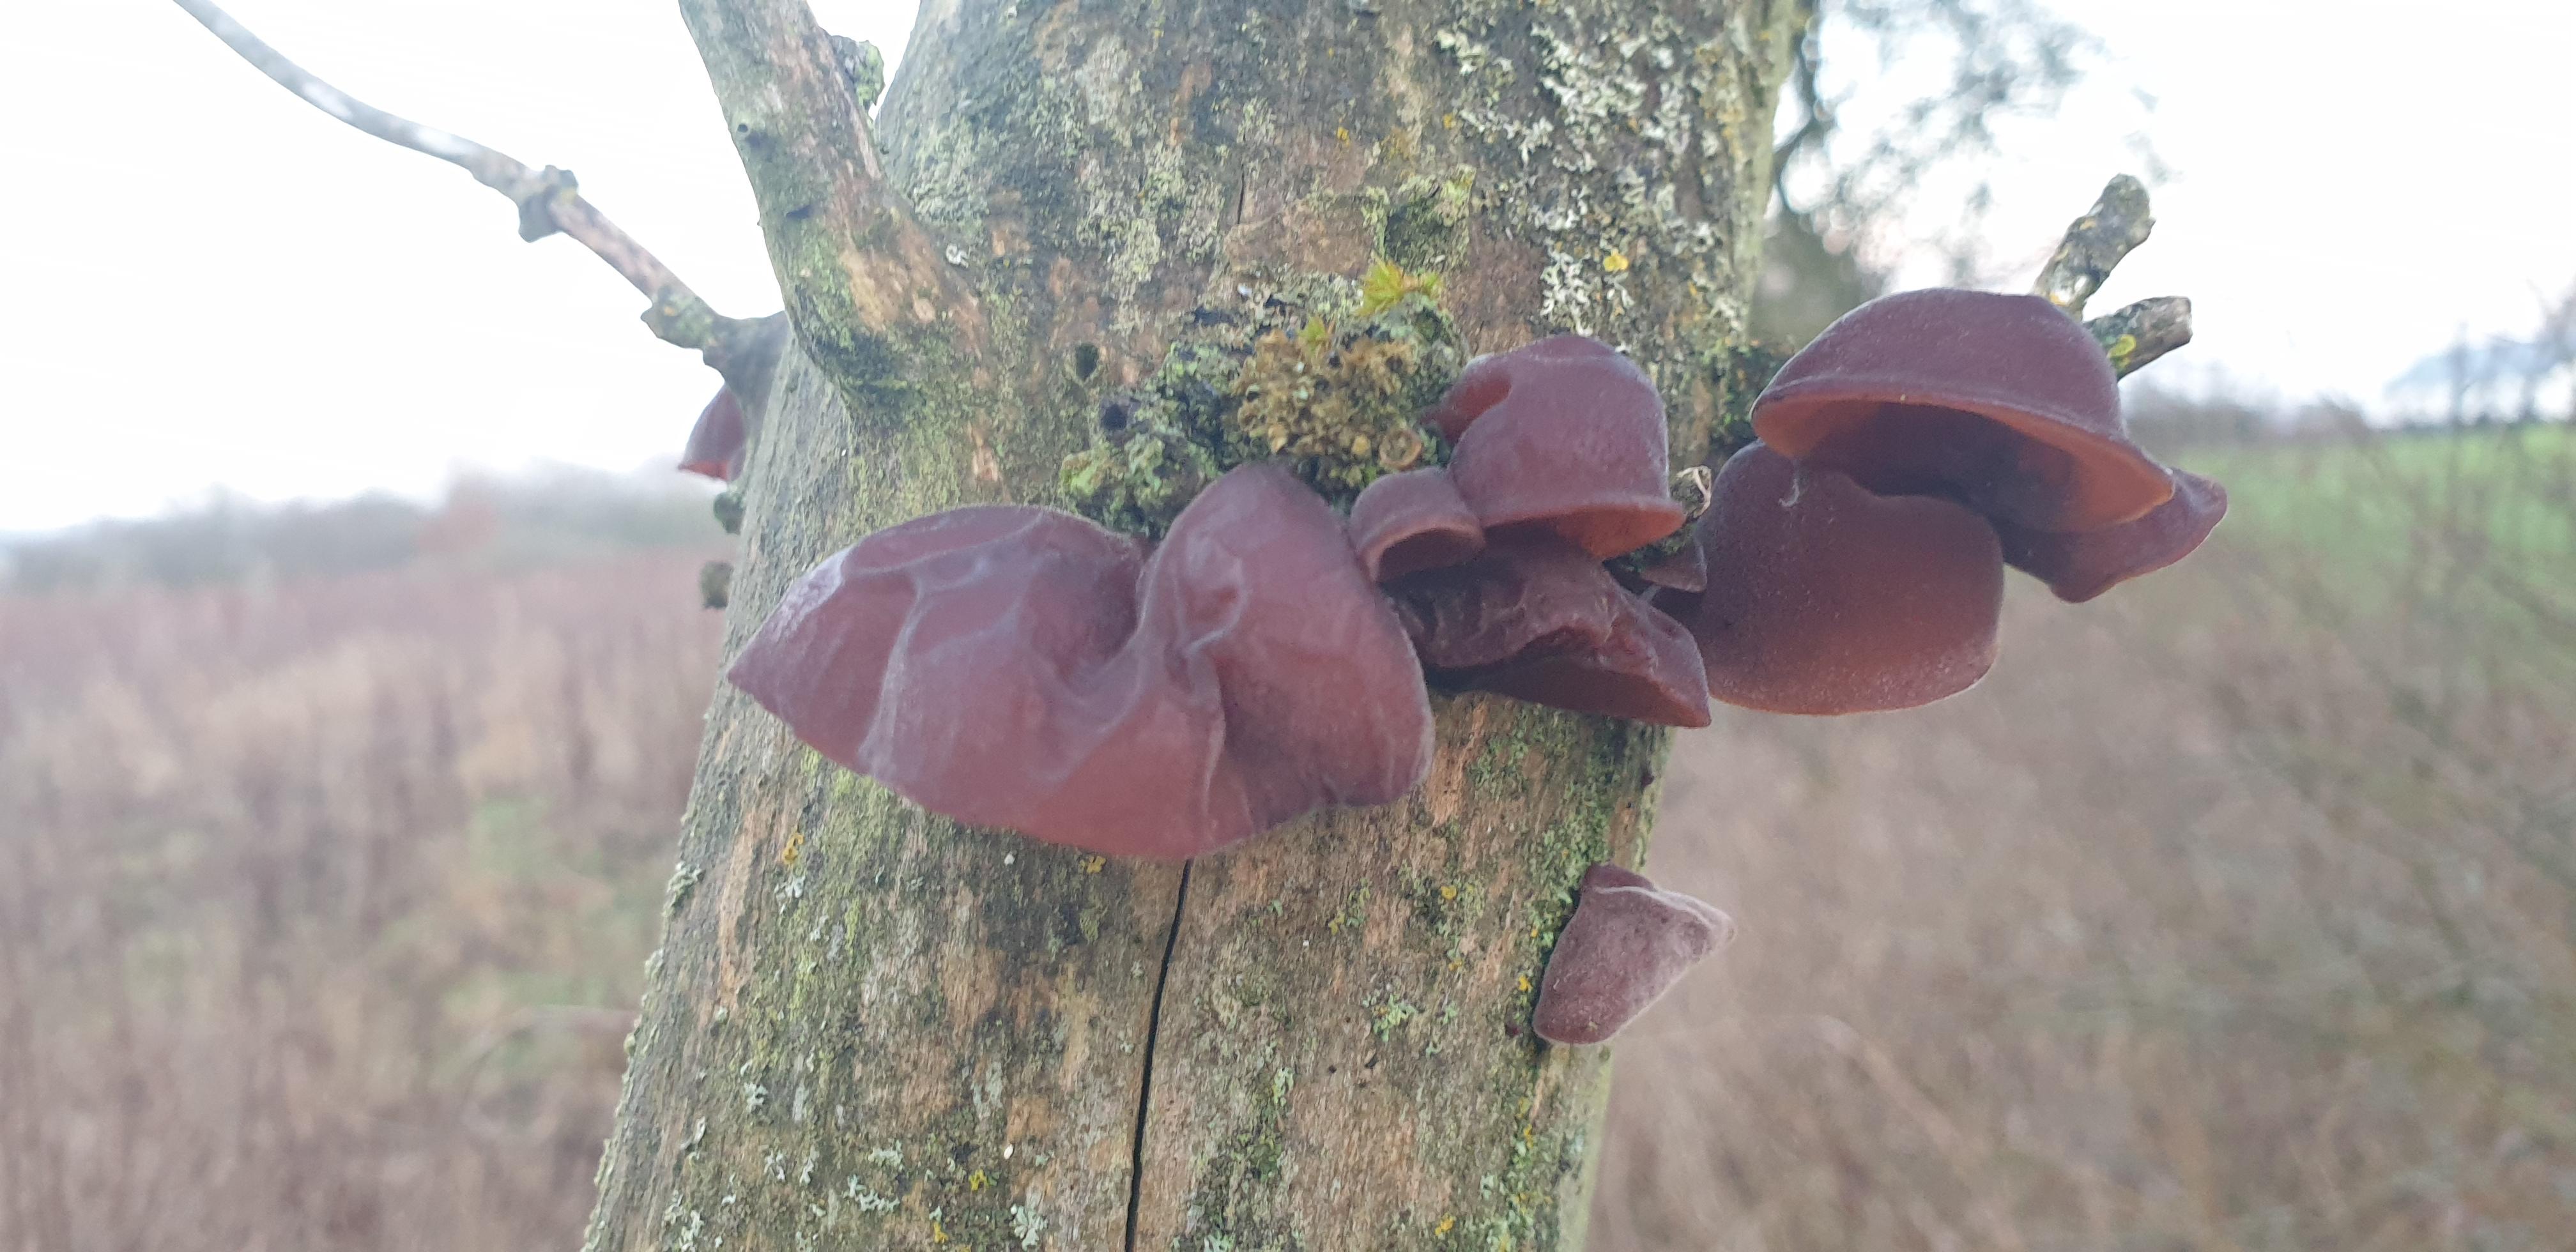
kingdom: Fungi
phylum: Basidiomycota
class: Agaricomycetes
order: Auriculariales
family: Auriculariaceae
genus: Auricularia
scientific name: Auricularia auricula-judae
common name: almindelig judasøre
